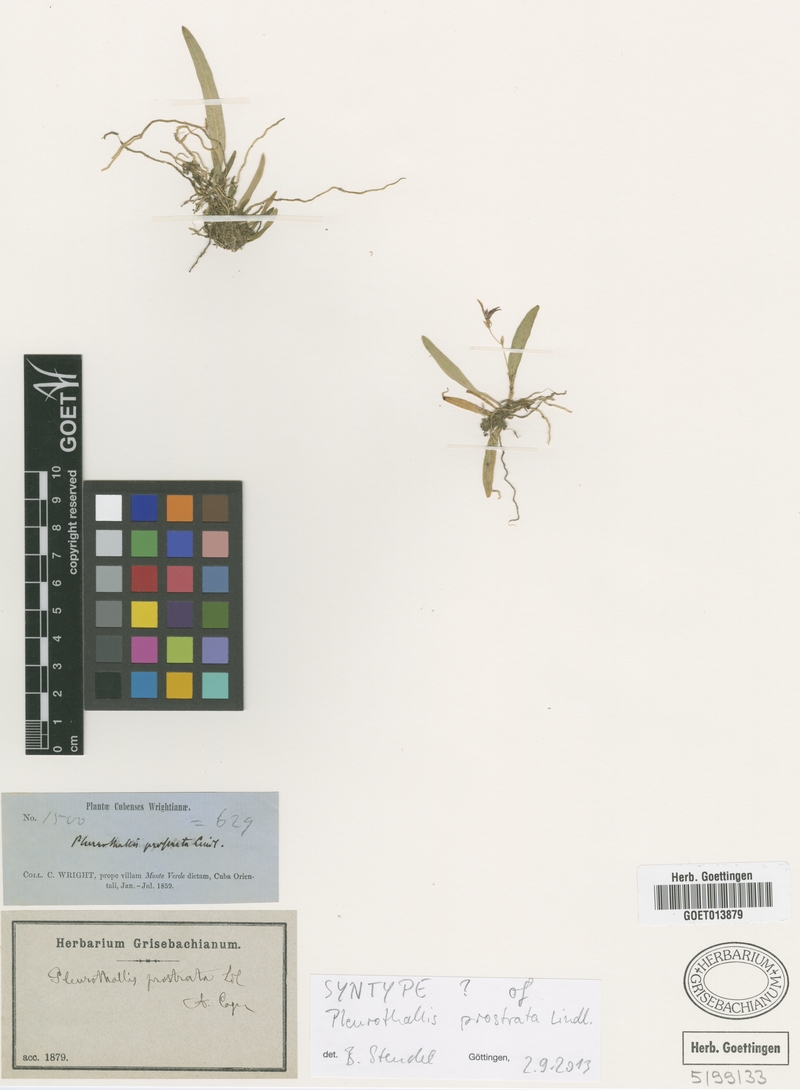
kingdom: Plantae
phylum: Tracheophyta
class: Liliopsida
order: Asparagales
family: Orchidaceae
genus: Acianthera
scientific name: Acianthera prostrata
